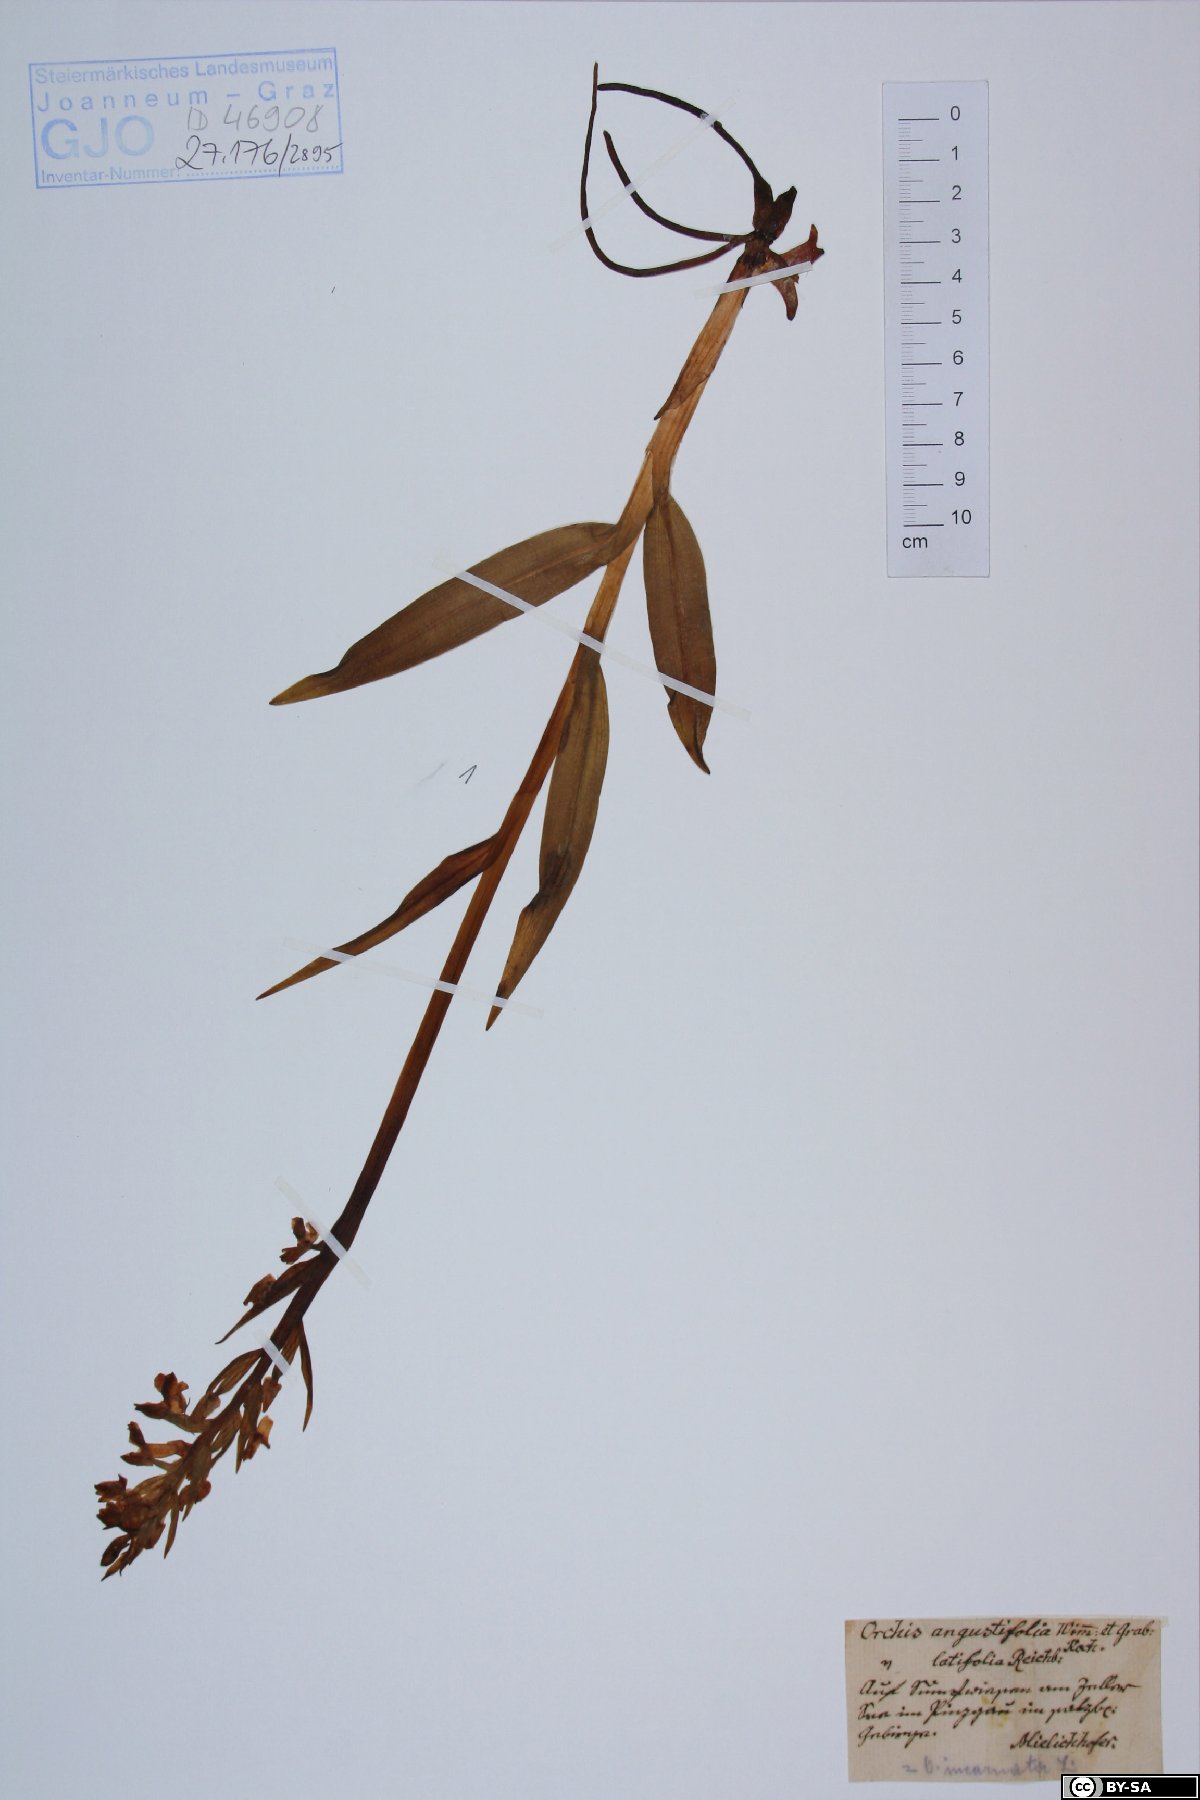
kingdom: Plantae
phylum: Tracheophyta
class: Liliopsida
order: Asparagales
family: Orchidaceae
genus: Dactylorhiza
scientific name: Dactylorhiza incarnata
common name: Early marsh-orchid
